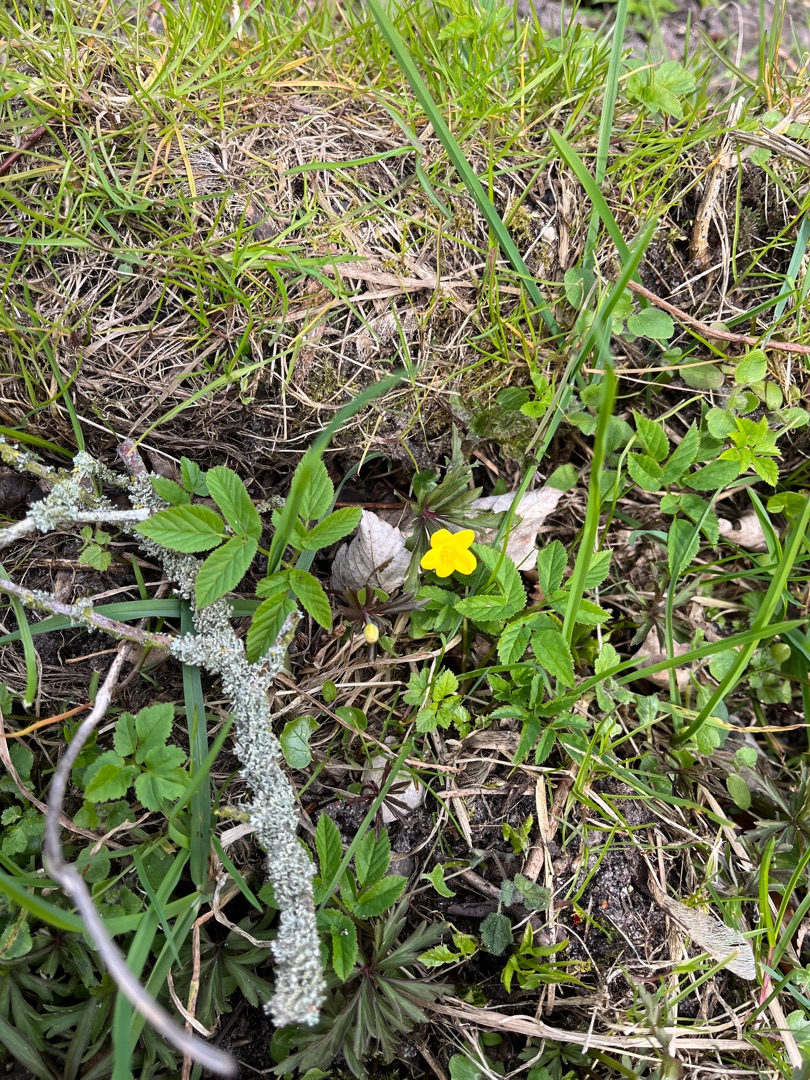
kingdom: Plantae
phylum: Tracheophyta
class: Magnoliopsida
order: Ranunculales
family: Ranunculaceae
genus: Anemone
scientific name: Anemone ranunculoides
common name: Gul anemone
